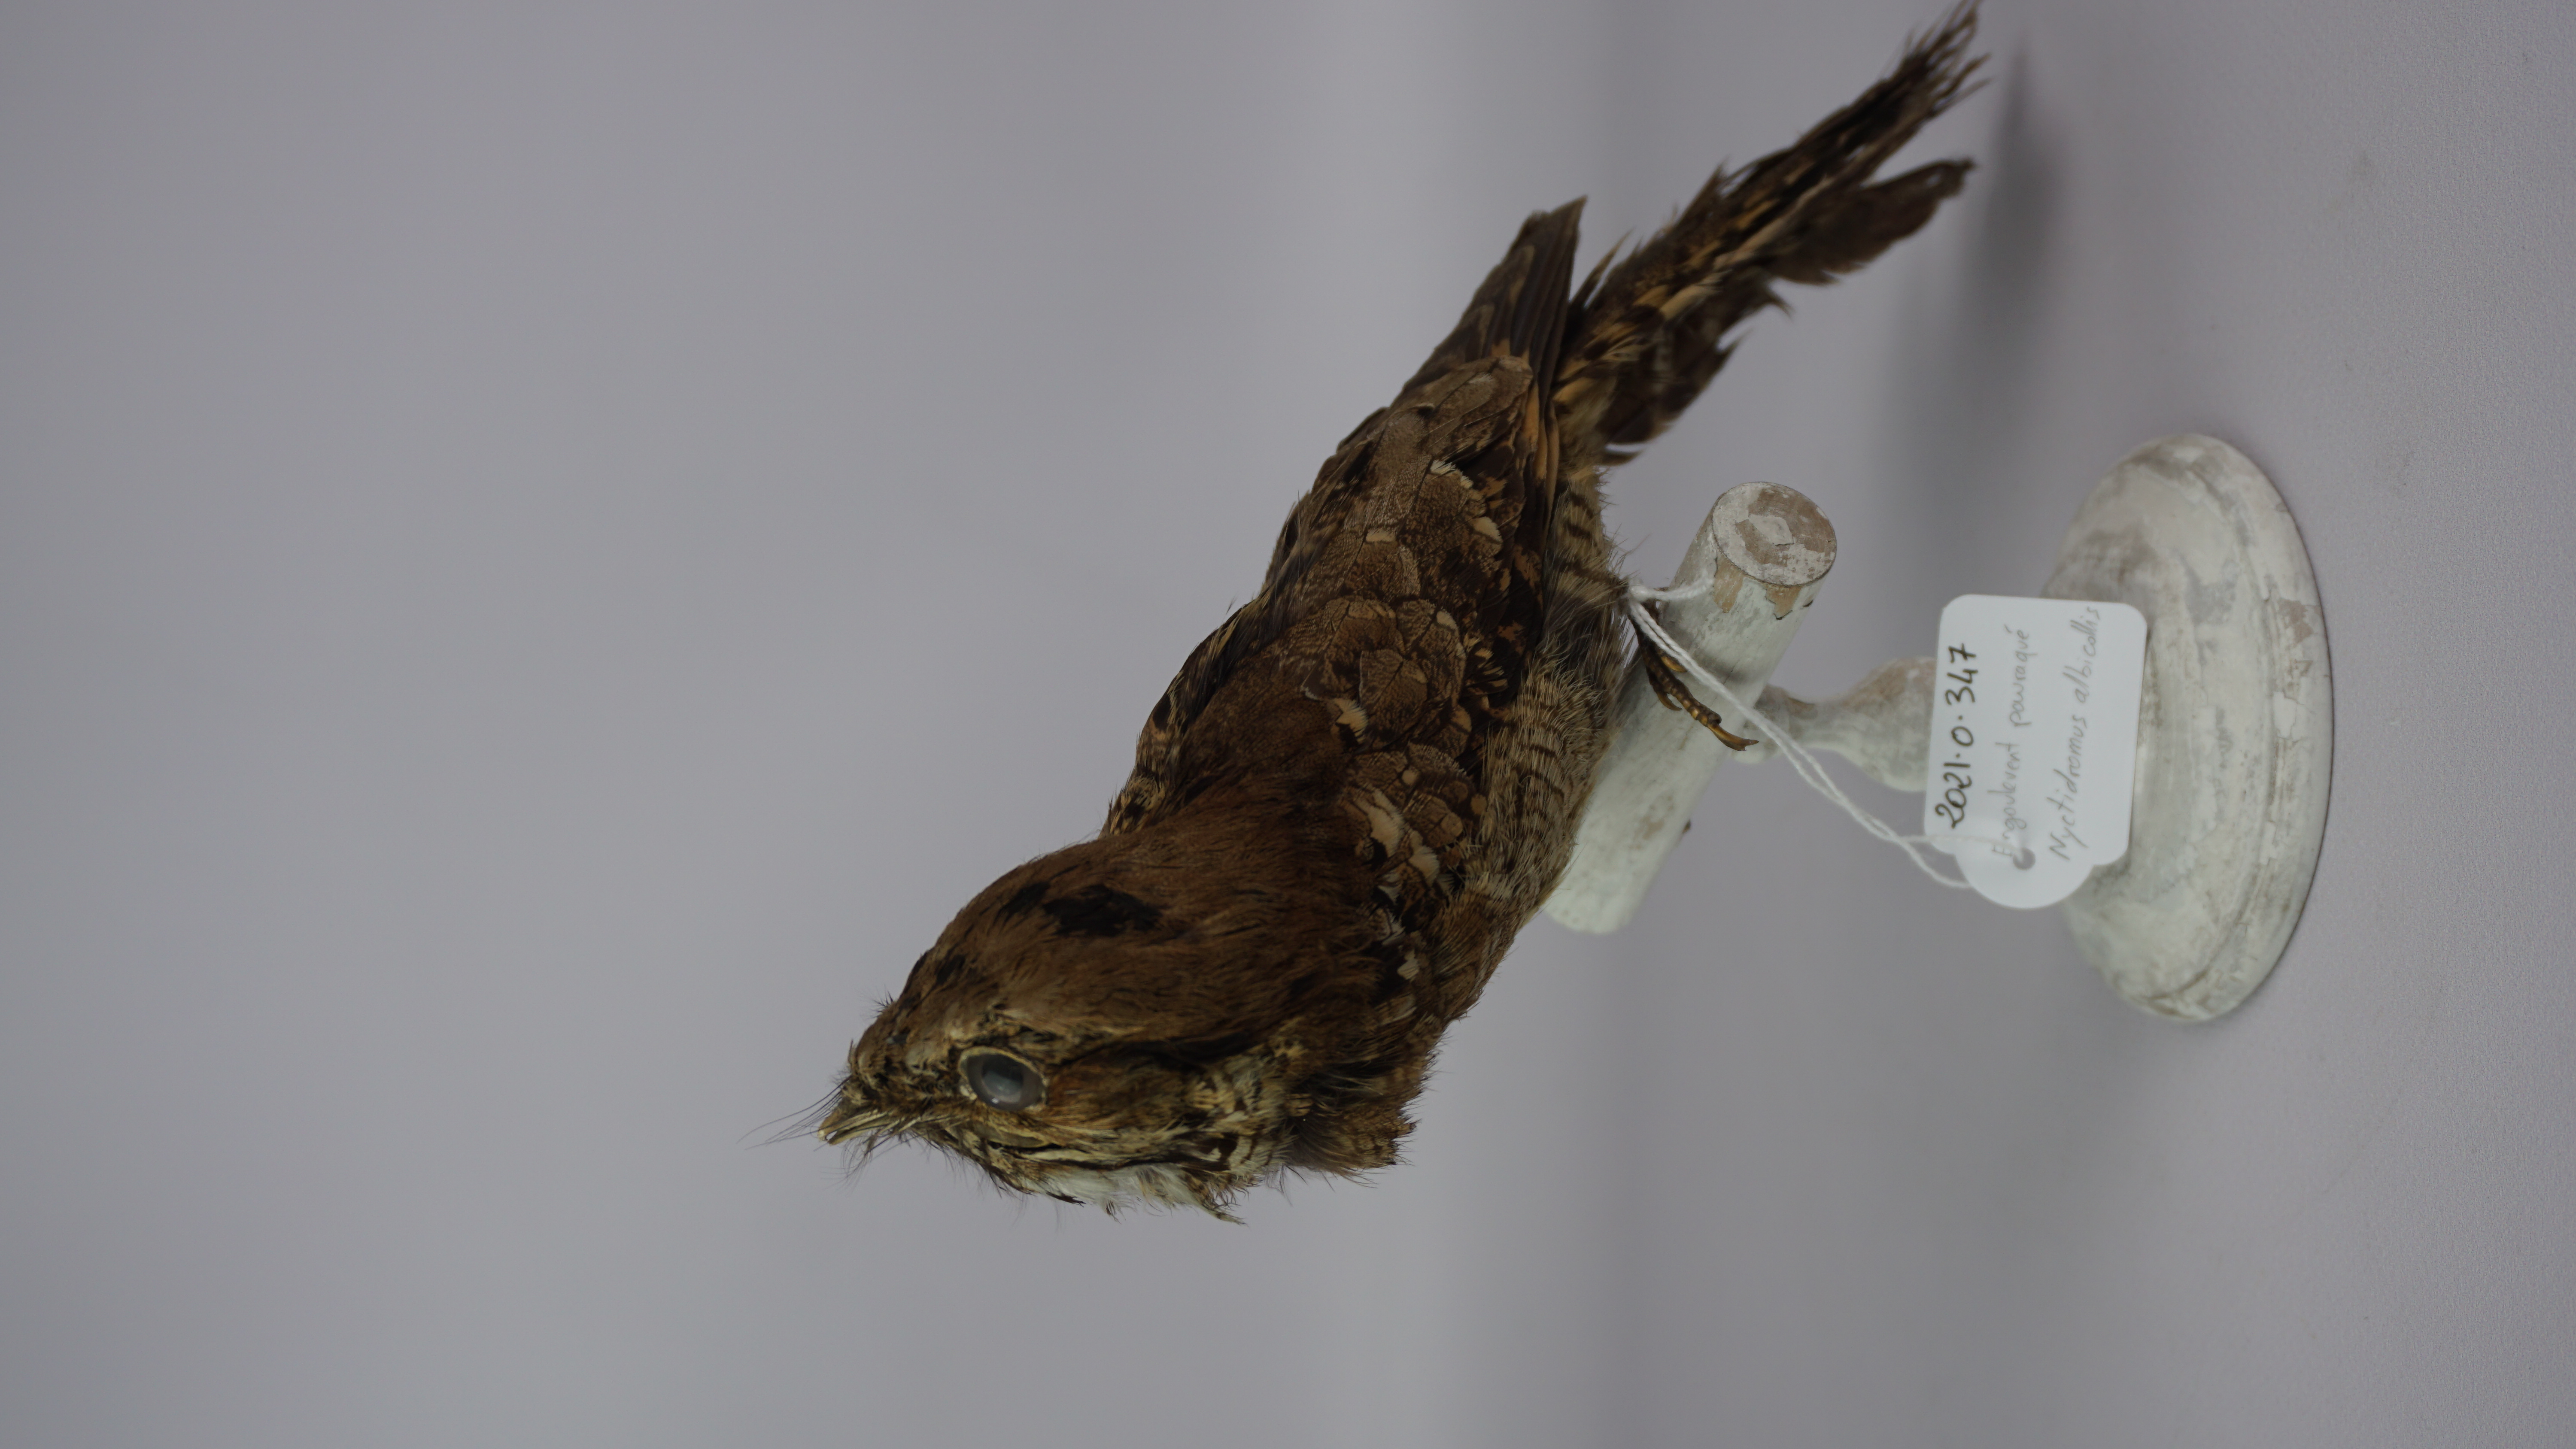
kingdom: Animalia
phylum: Chordata
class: Aves
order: Caprimulgiformes
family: Caprimulgidae
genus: Nyctidromus
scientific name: Nyctidromus albicollis
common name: Pauraque
